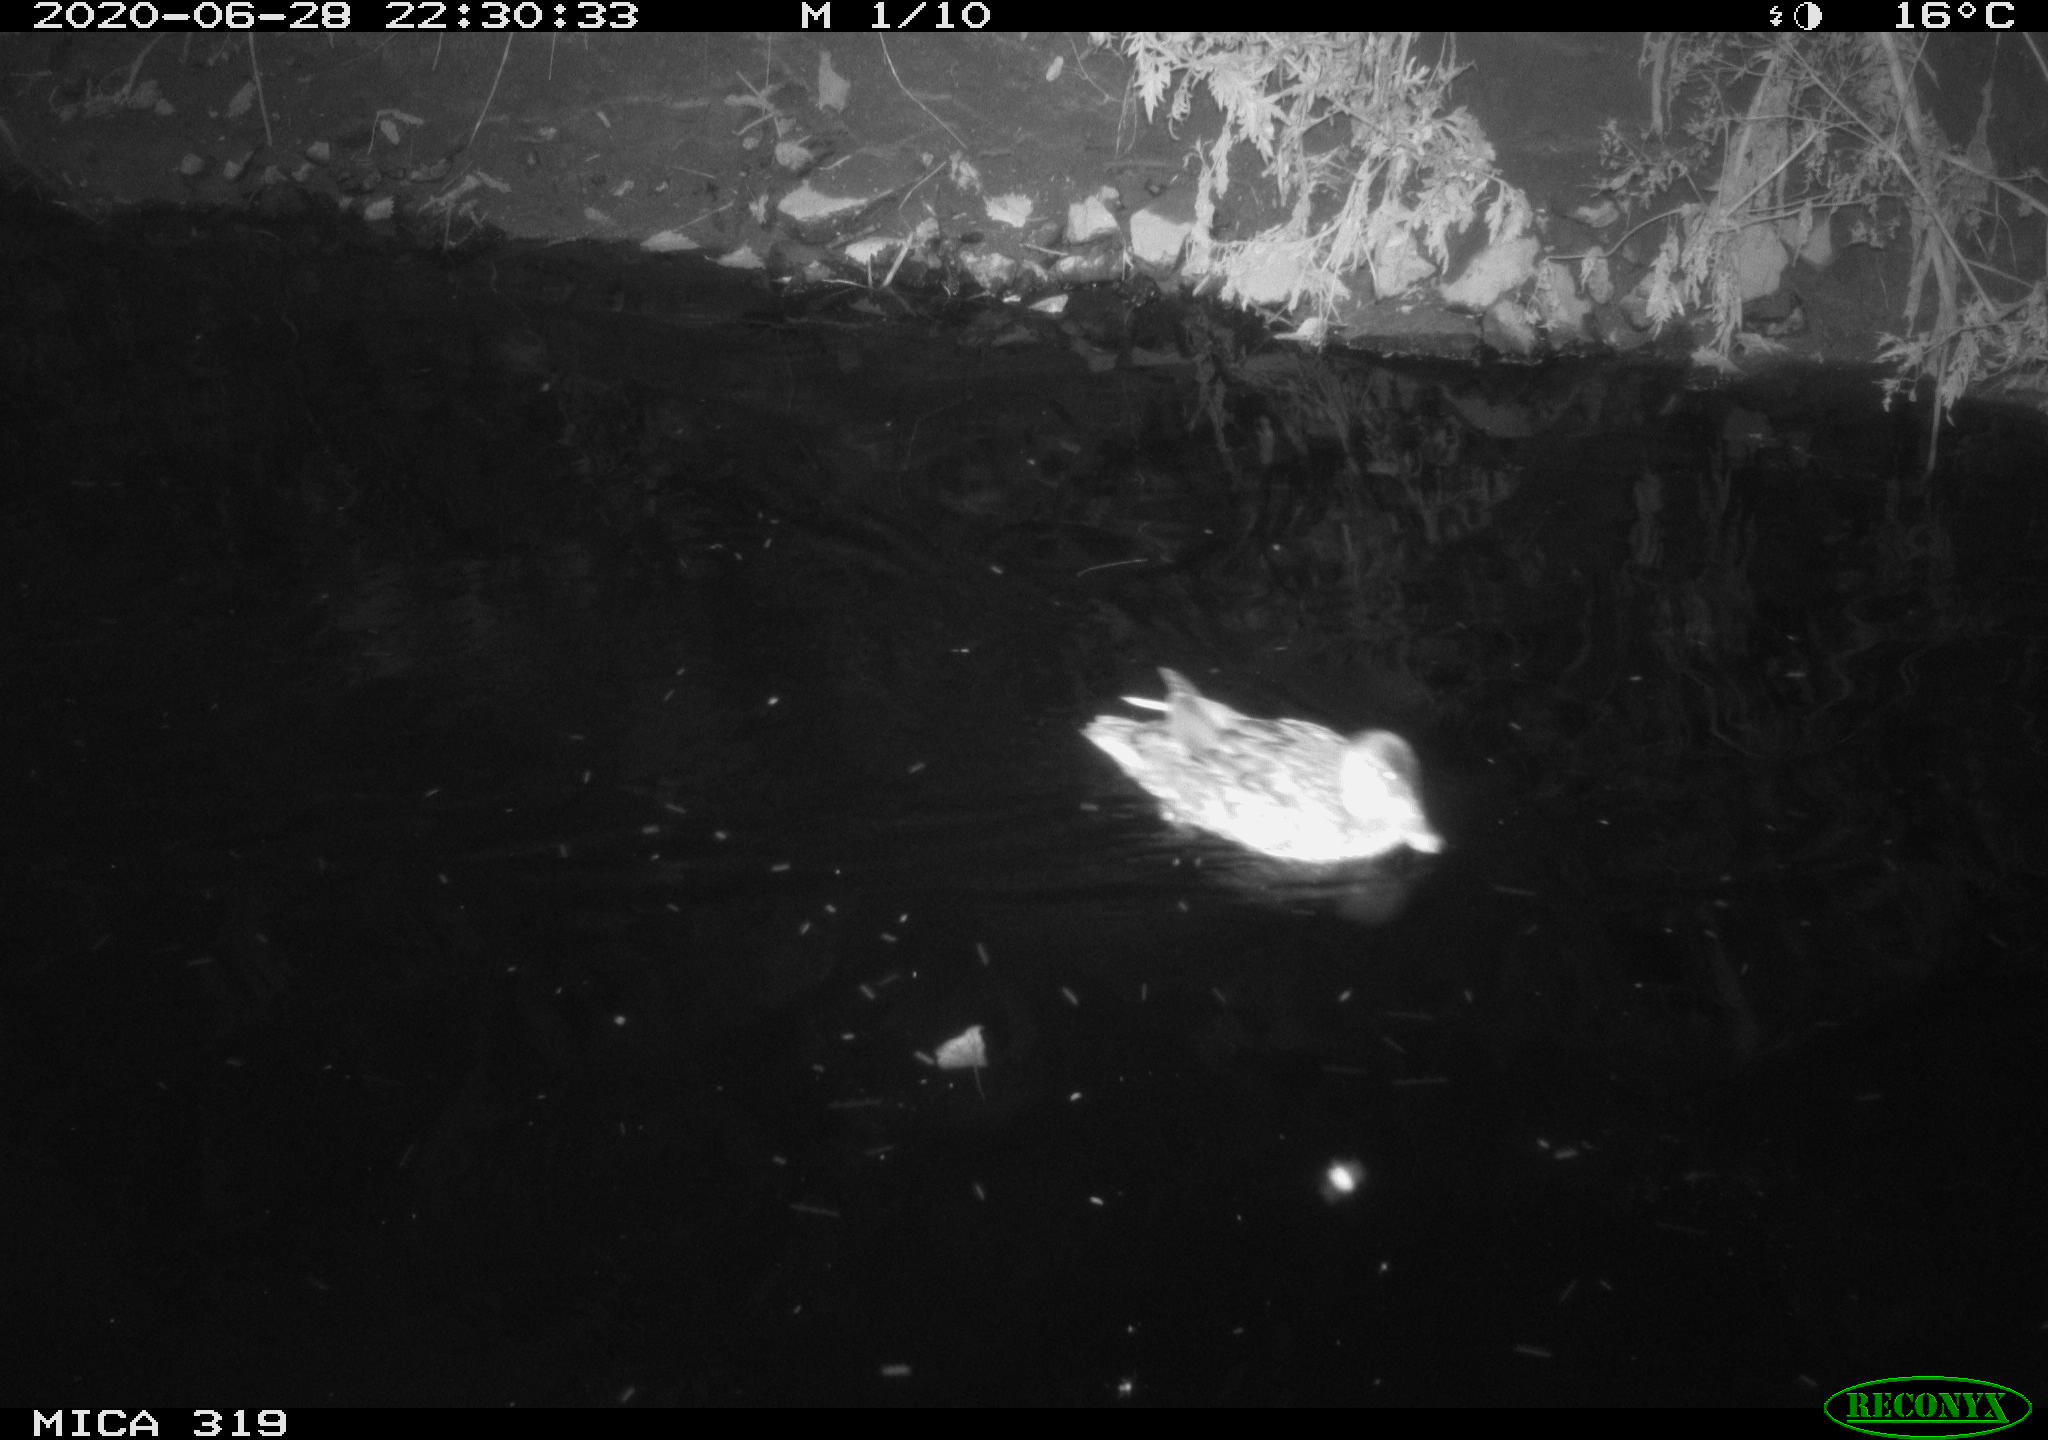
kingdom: Animalia
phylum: Chordata
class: Aves
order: Anseriformes
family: Anatidae
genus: Anas
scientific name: Anas platyrhynchos
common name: Mallard
